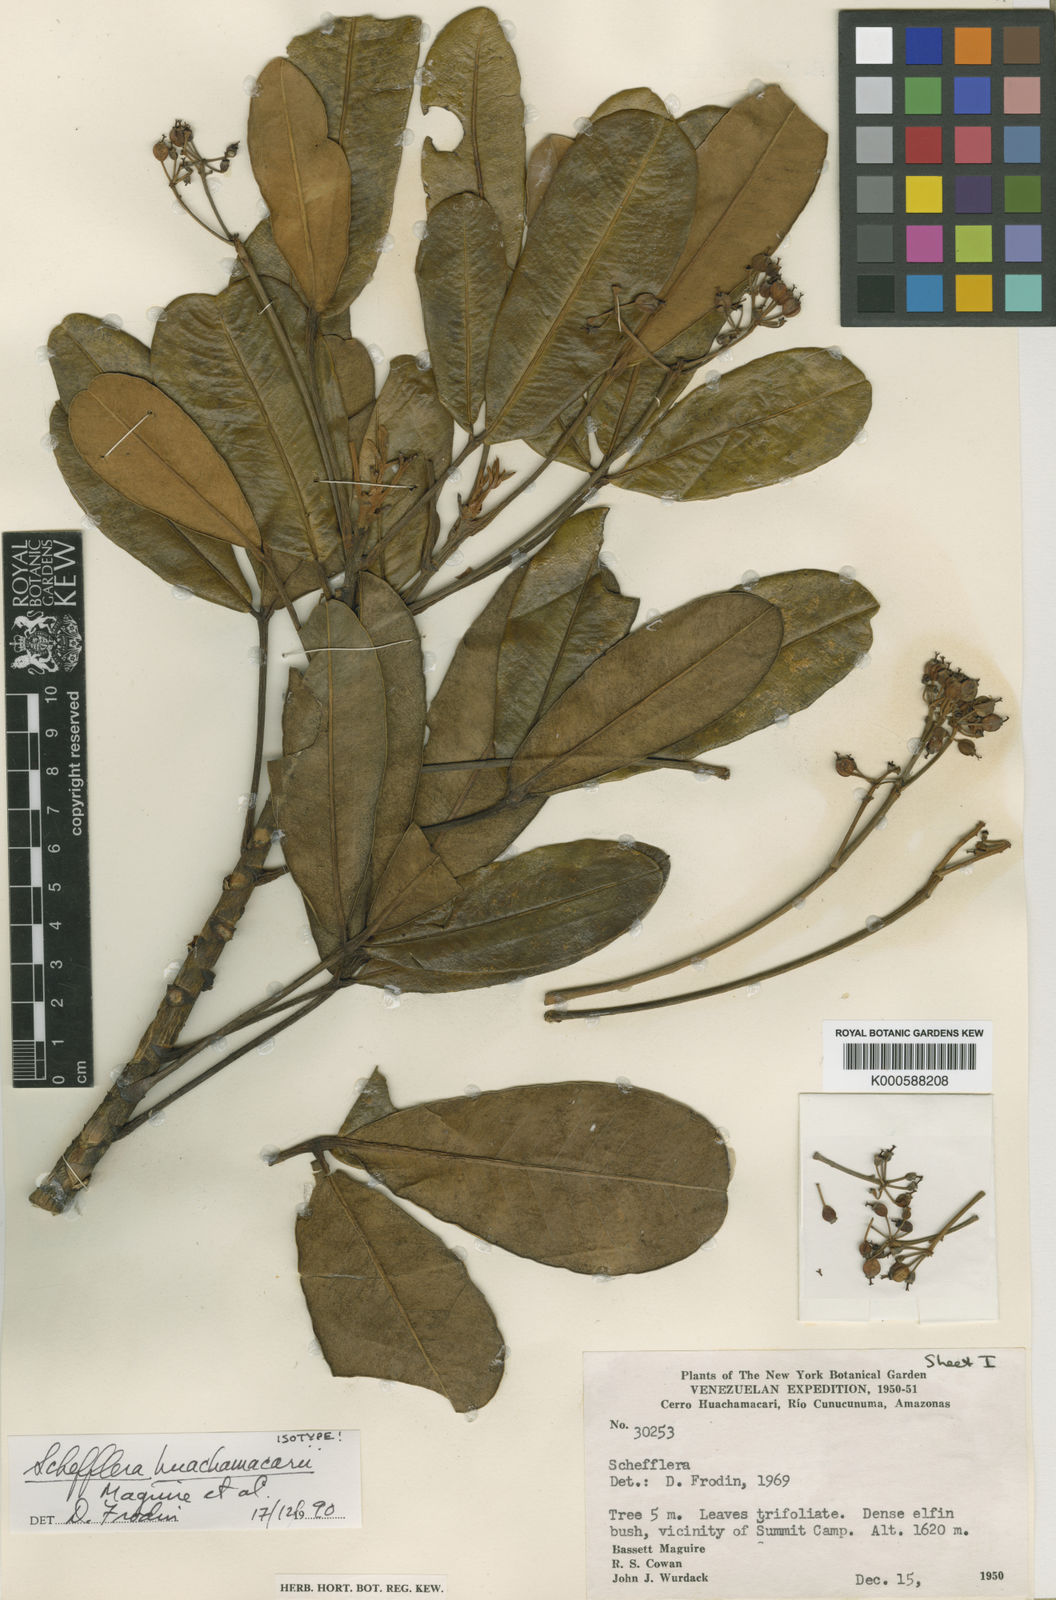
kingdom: Plantae
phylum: Tracheophyta
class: Magnoliopsida
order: Apiales
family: Araliaceae
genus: Crepinella
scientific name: Crepinella
